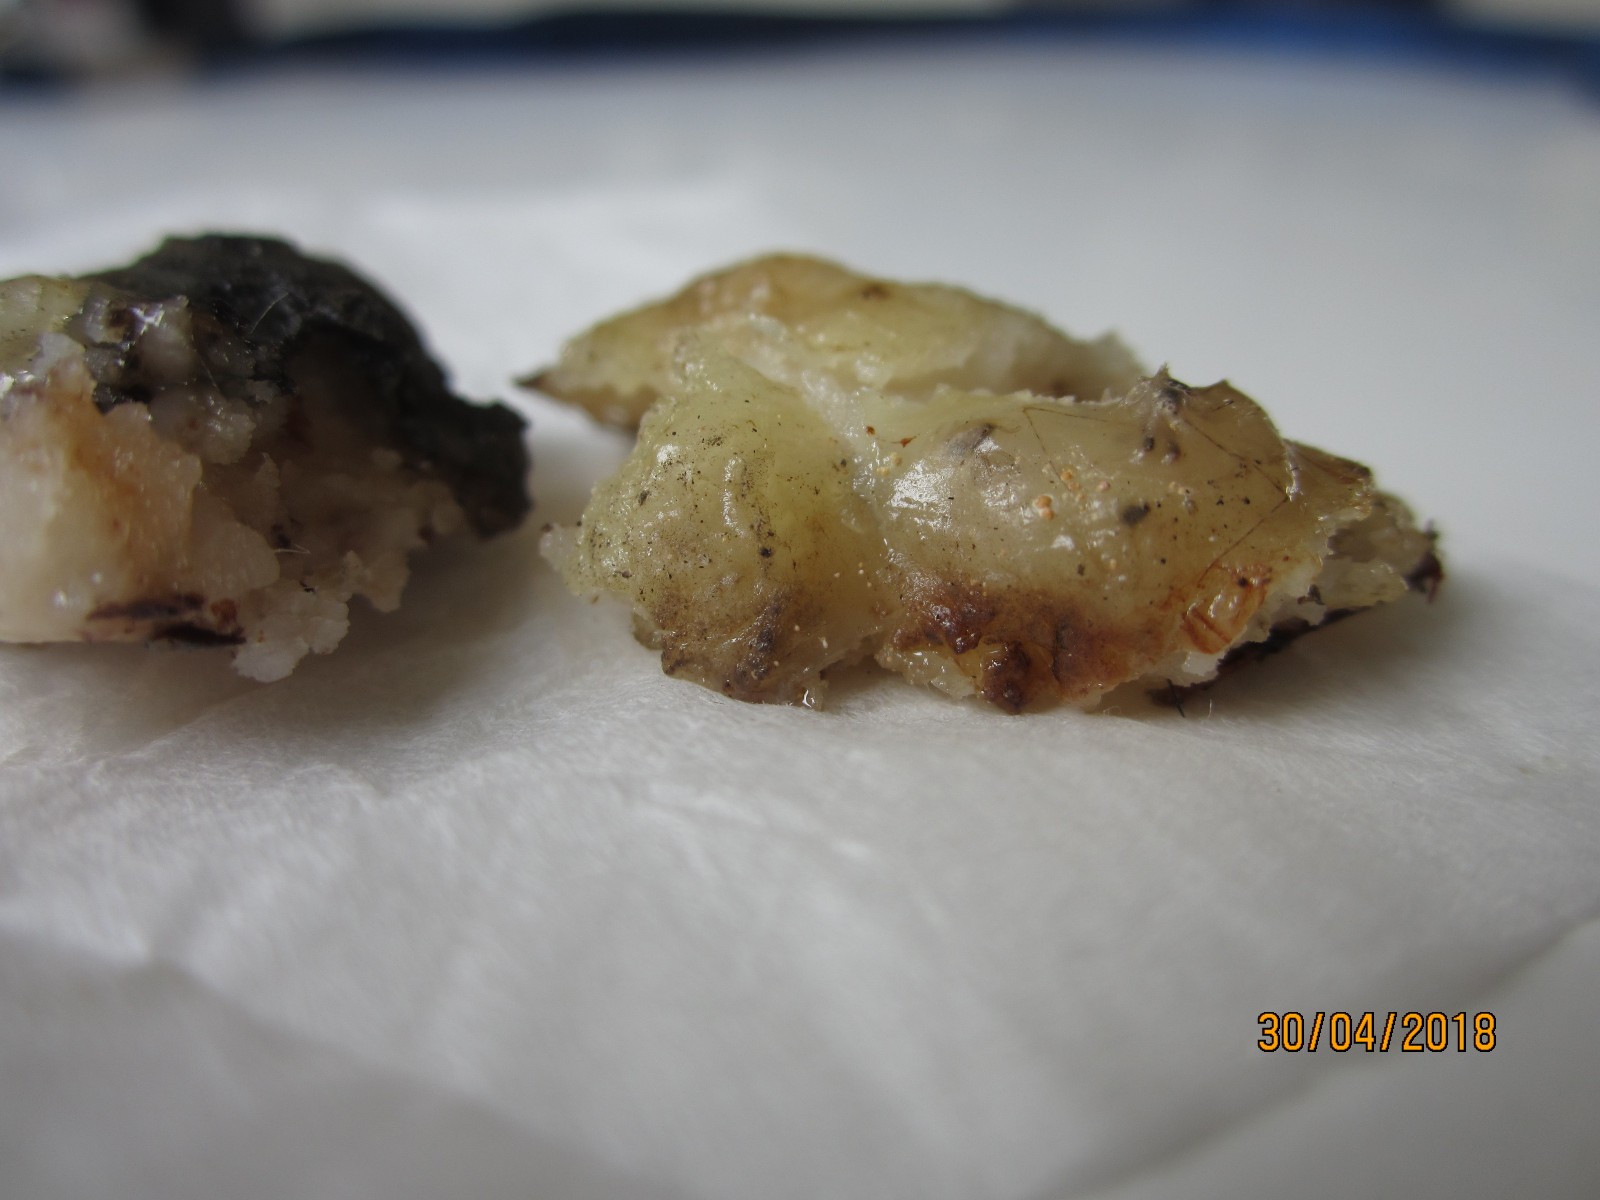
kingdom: Fungi
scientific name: Fungi
